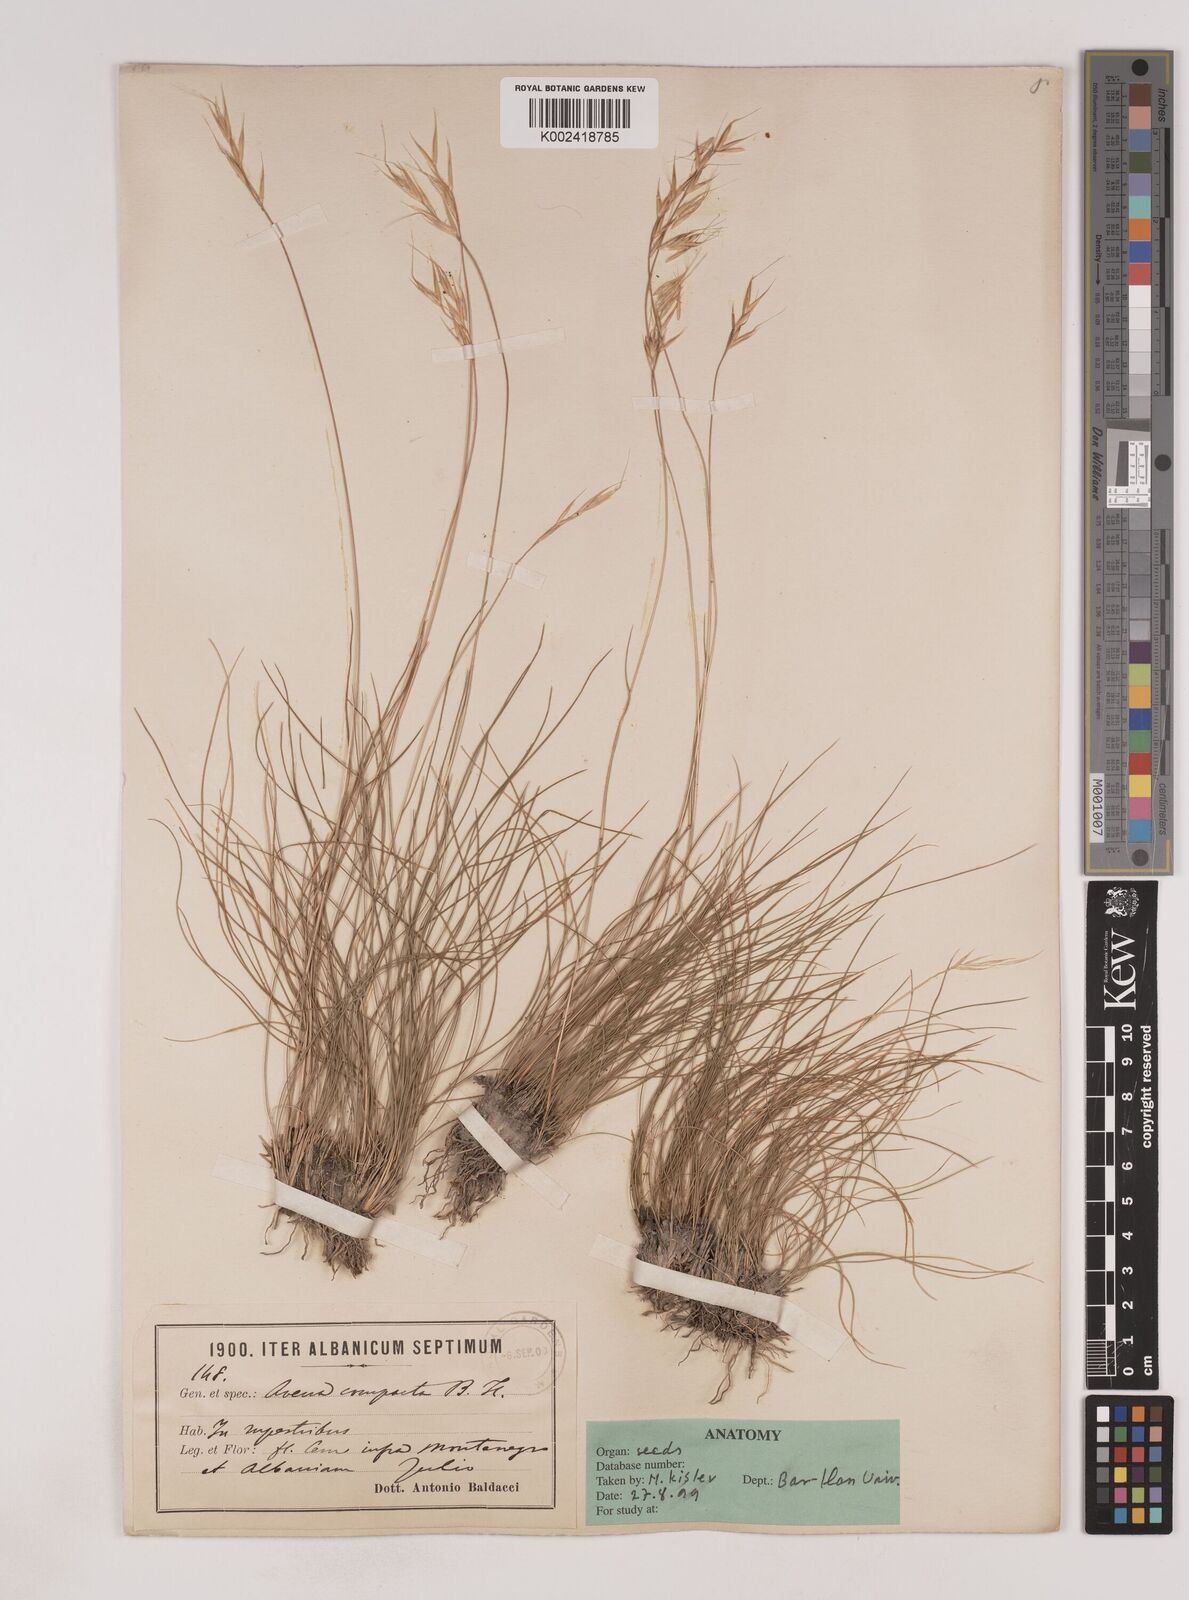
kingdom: Plantae
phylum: Tracheophyta
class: Liliopsida
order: Poales
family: Poaceae
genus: Danthoniastrum
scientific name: Danthoniastrum compactum
